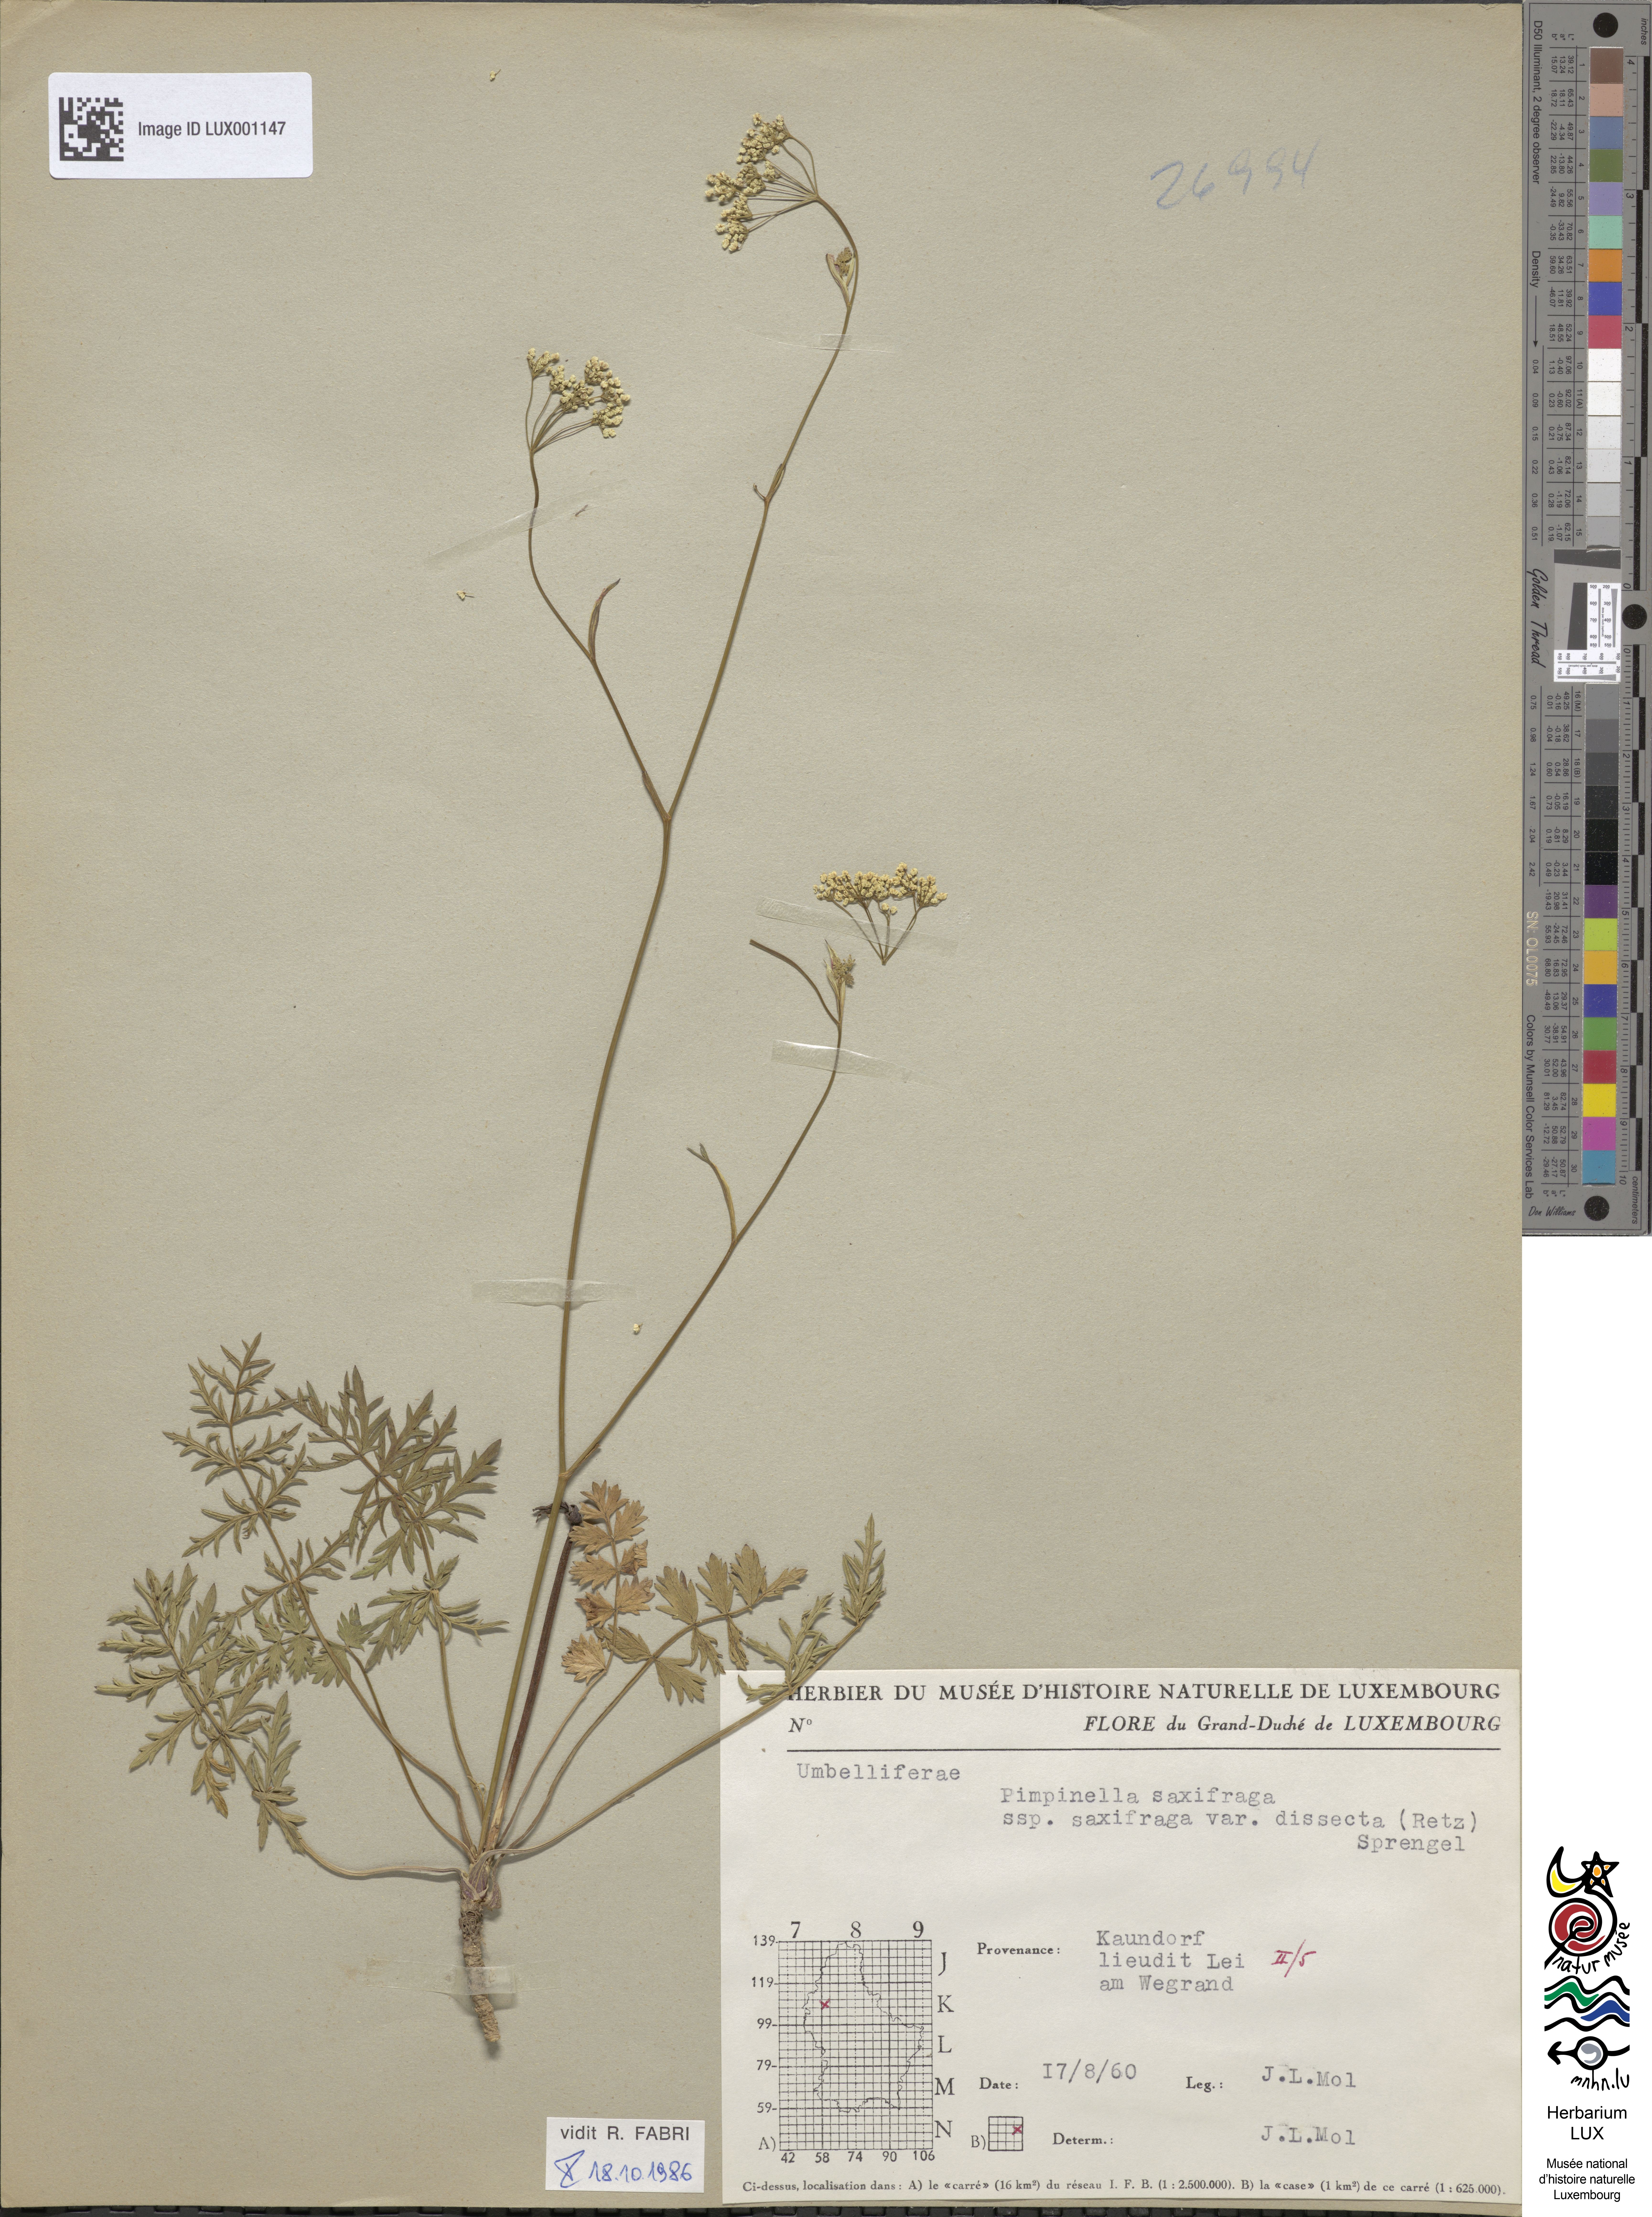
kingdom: Plantae
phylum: Tracheophyta
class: Magnoliopsida
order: Apiales
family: Apiaceae
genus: Pimpinella
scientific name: Pimpinella saxifraga
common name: Burnet-saxifrage
